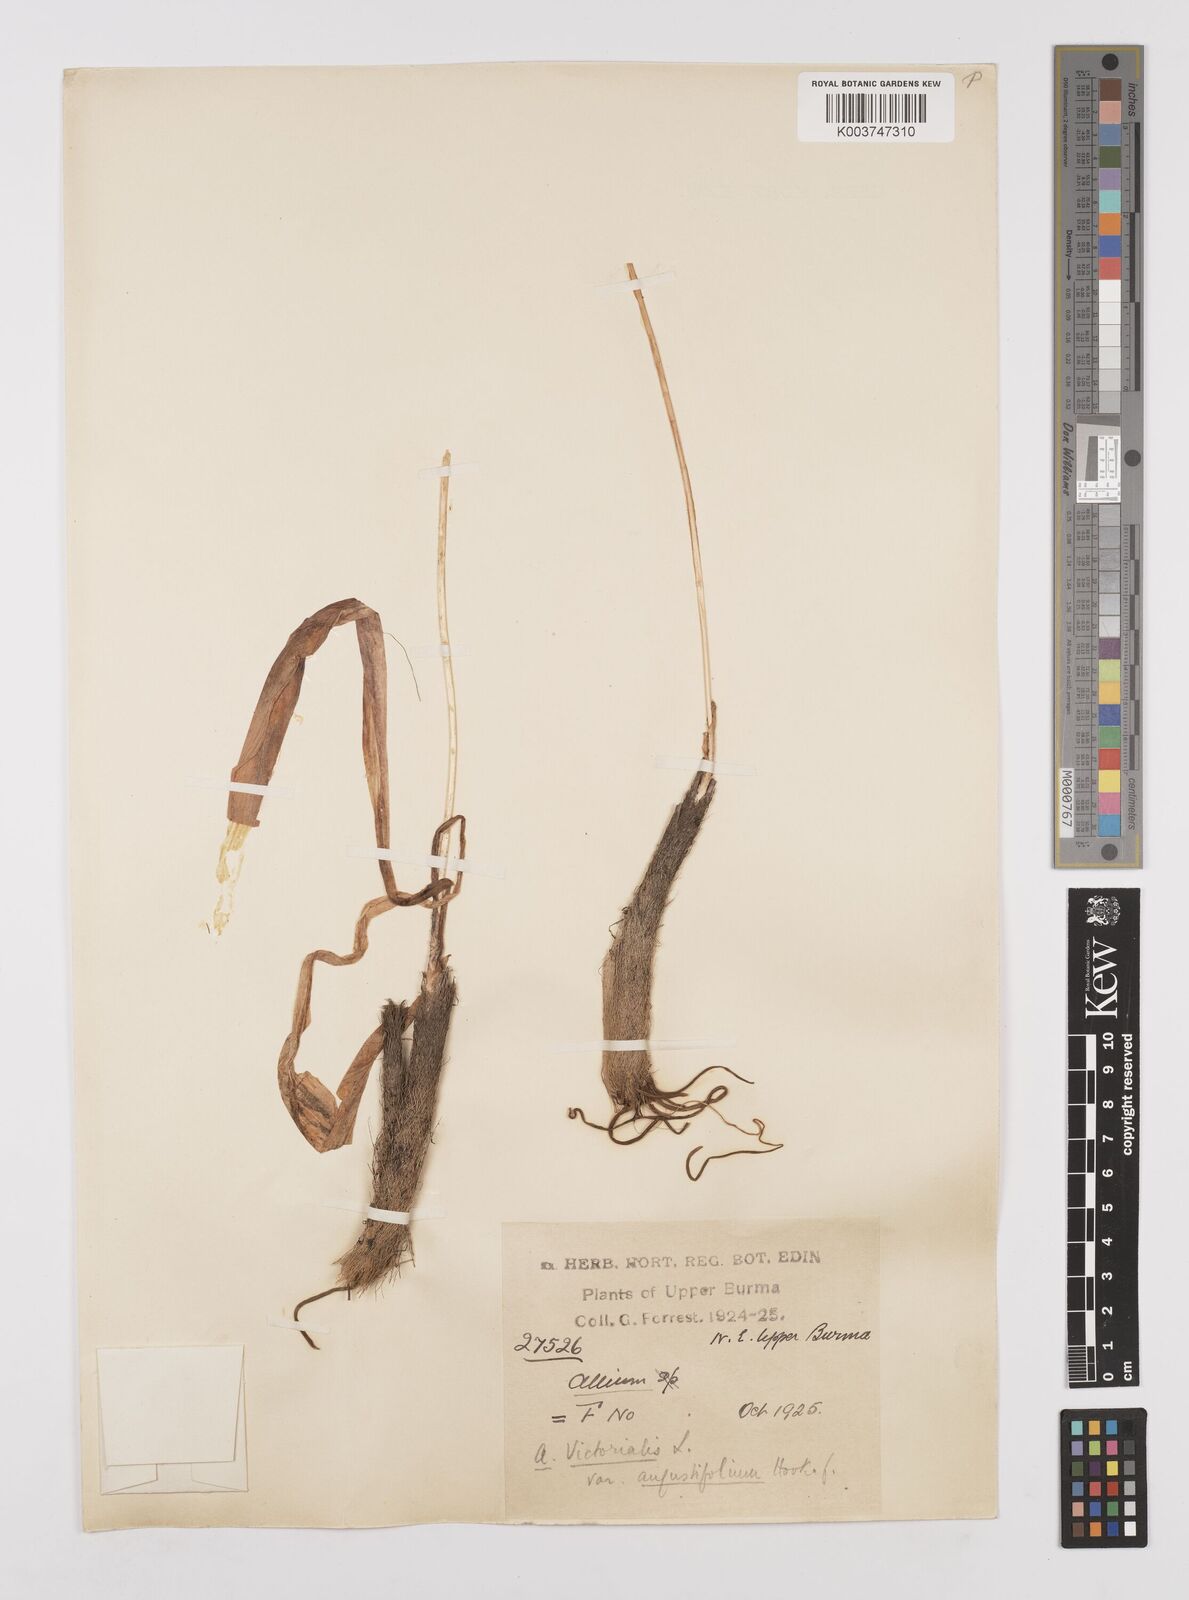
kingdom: Plantae
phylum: Tracheophyta
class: Liliopsida
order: Asparagales
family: Amaryllidaceae
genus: Allium
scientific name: Allium prattii
